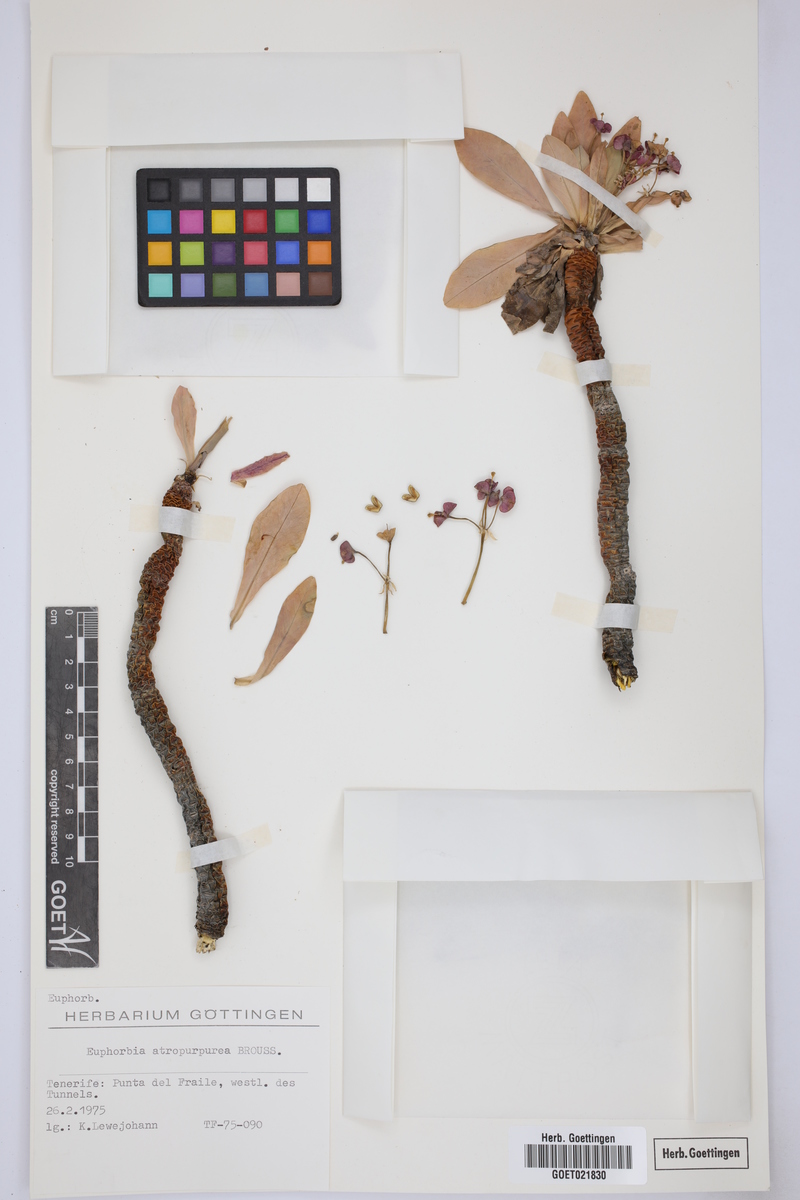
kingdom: Plantae
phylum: Tracheophyta
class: Magnoliopsida
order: Malpighiales
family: Euphorbiaceae
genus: Euphorbia
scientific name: Euphorbia atropurpurea
